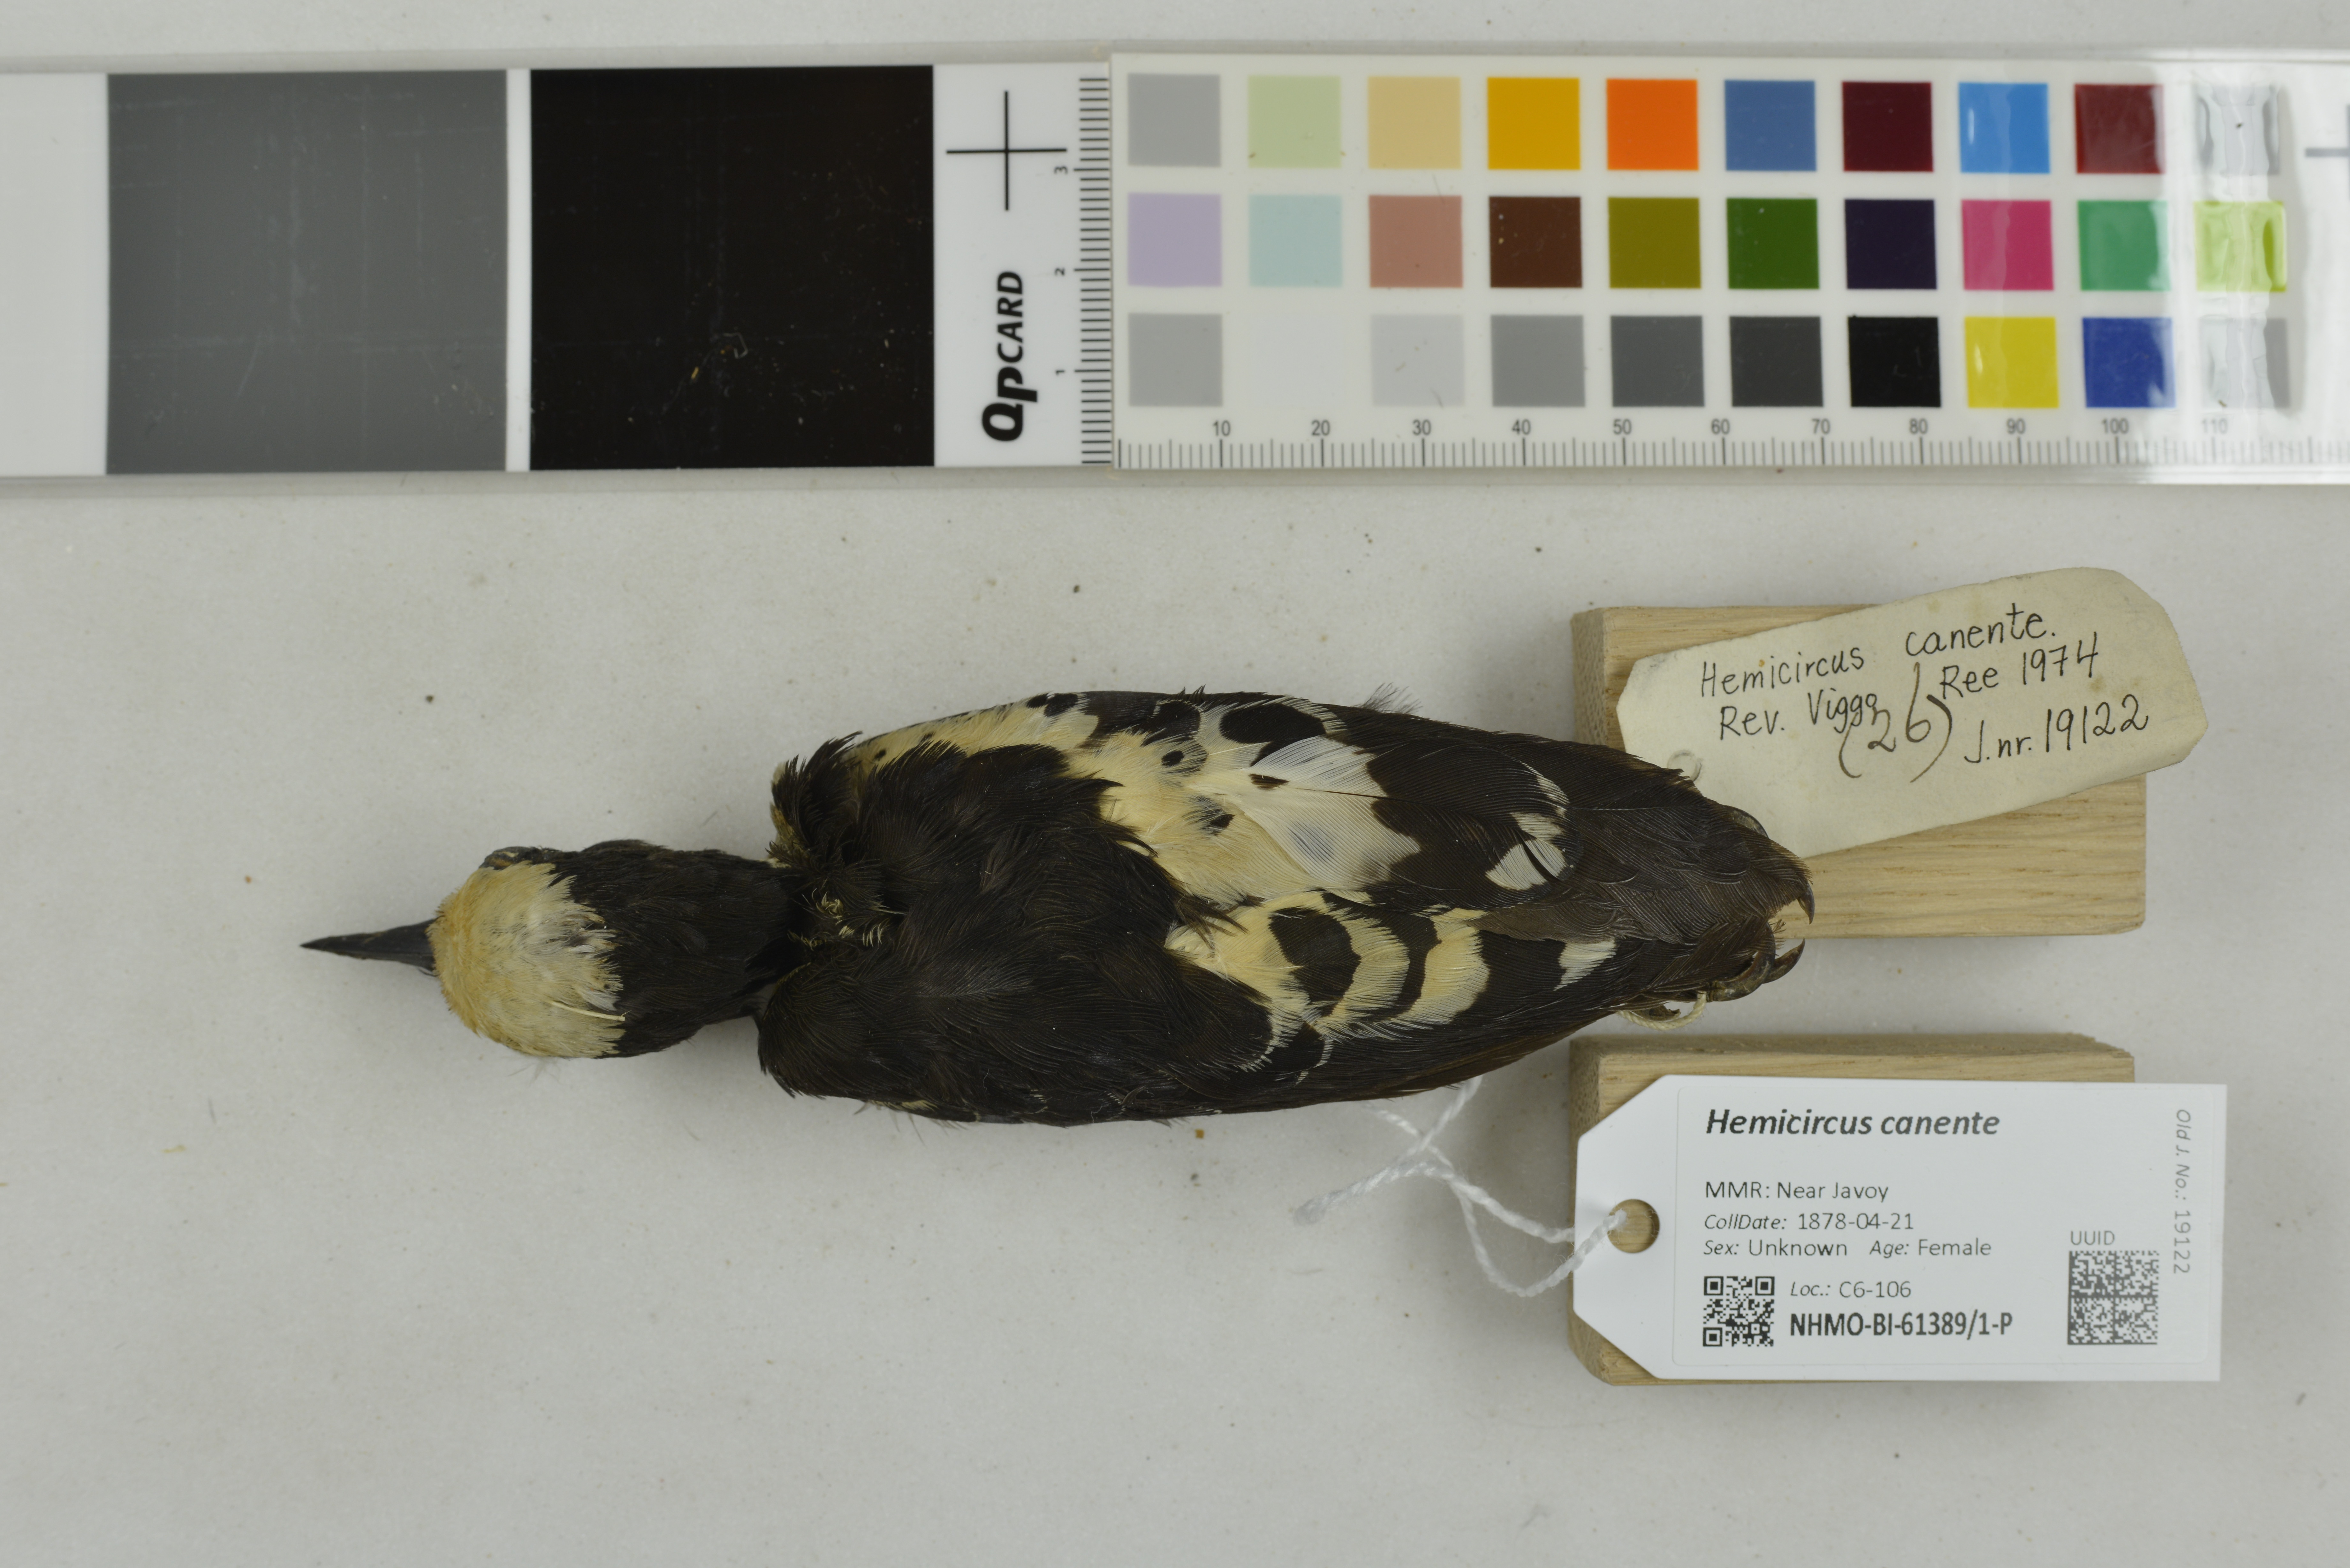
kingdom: Animalia
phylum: Chordata
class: Aves
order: Piciformes
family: Picidae
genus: Hemicircus
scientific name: Hemicircus canente
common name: Heart-spotted woodpecker
